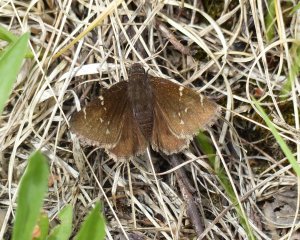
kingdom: Animalia
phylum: Arthropoda
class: Insecta
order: Lepidoptera
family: Hesperiidae
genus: Autochton
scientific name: Autochton
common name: Northern Cloudywing
